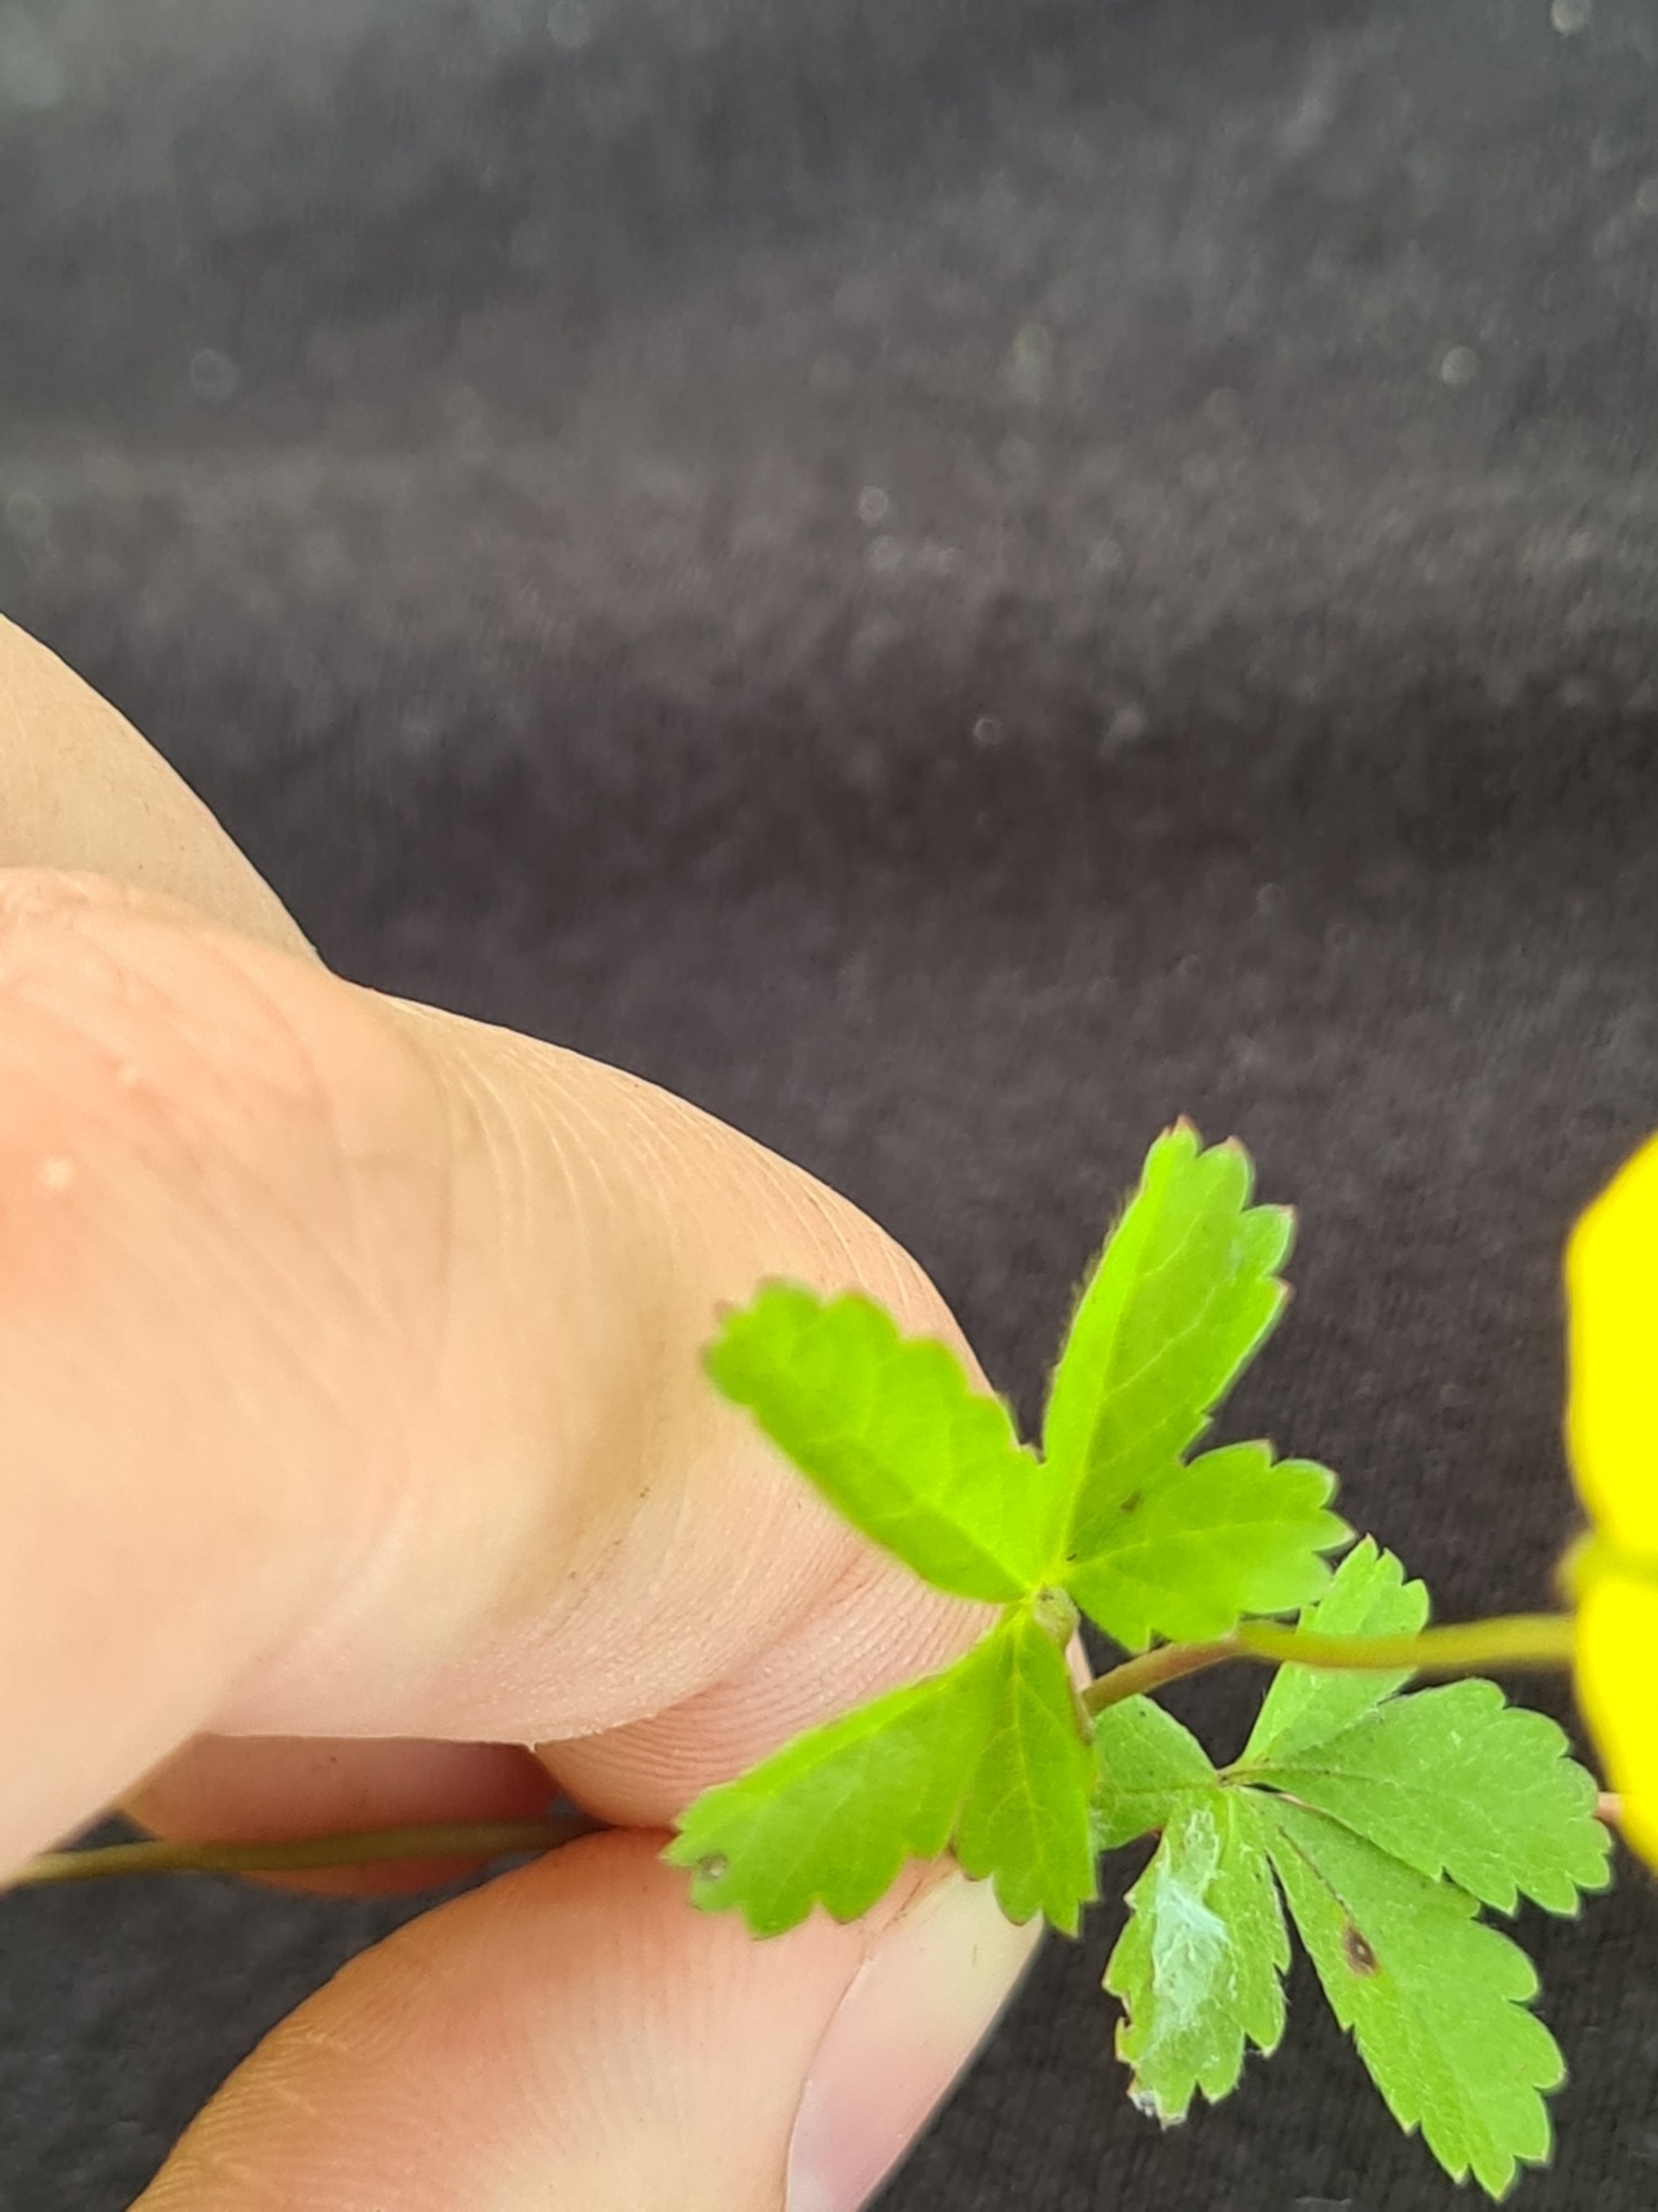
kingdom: Plantae
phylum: Tracheophyta
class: Magnoliopsida
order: Rosales
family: Rosaceae
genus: Potentilla
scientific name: Potentilla reptans
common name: Krybende potentil
